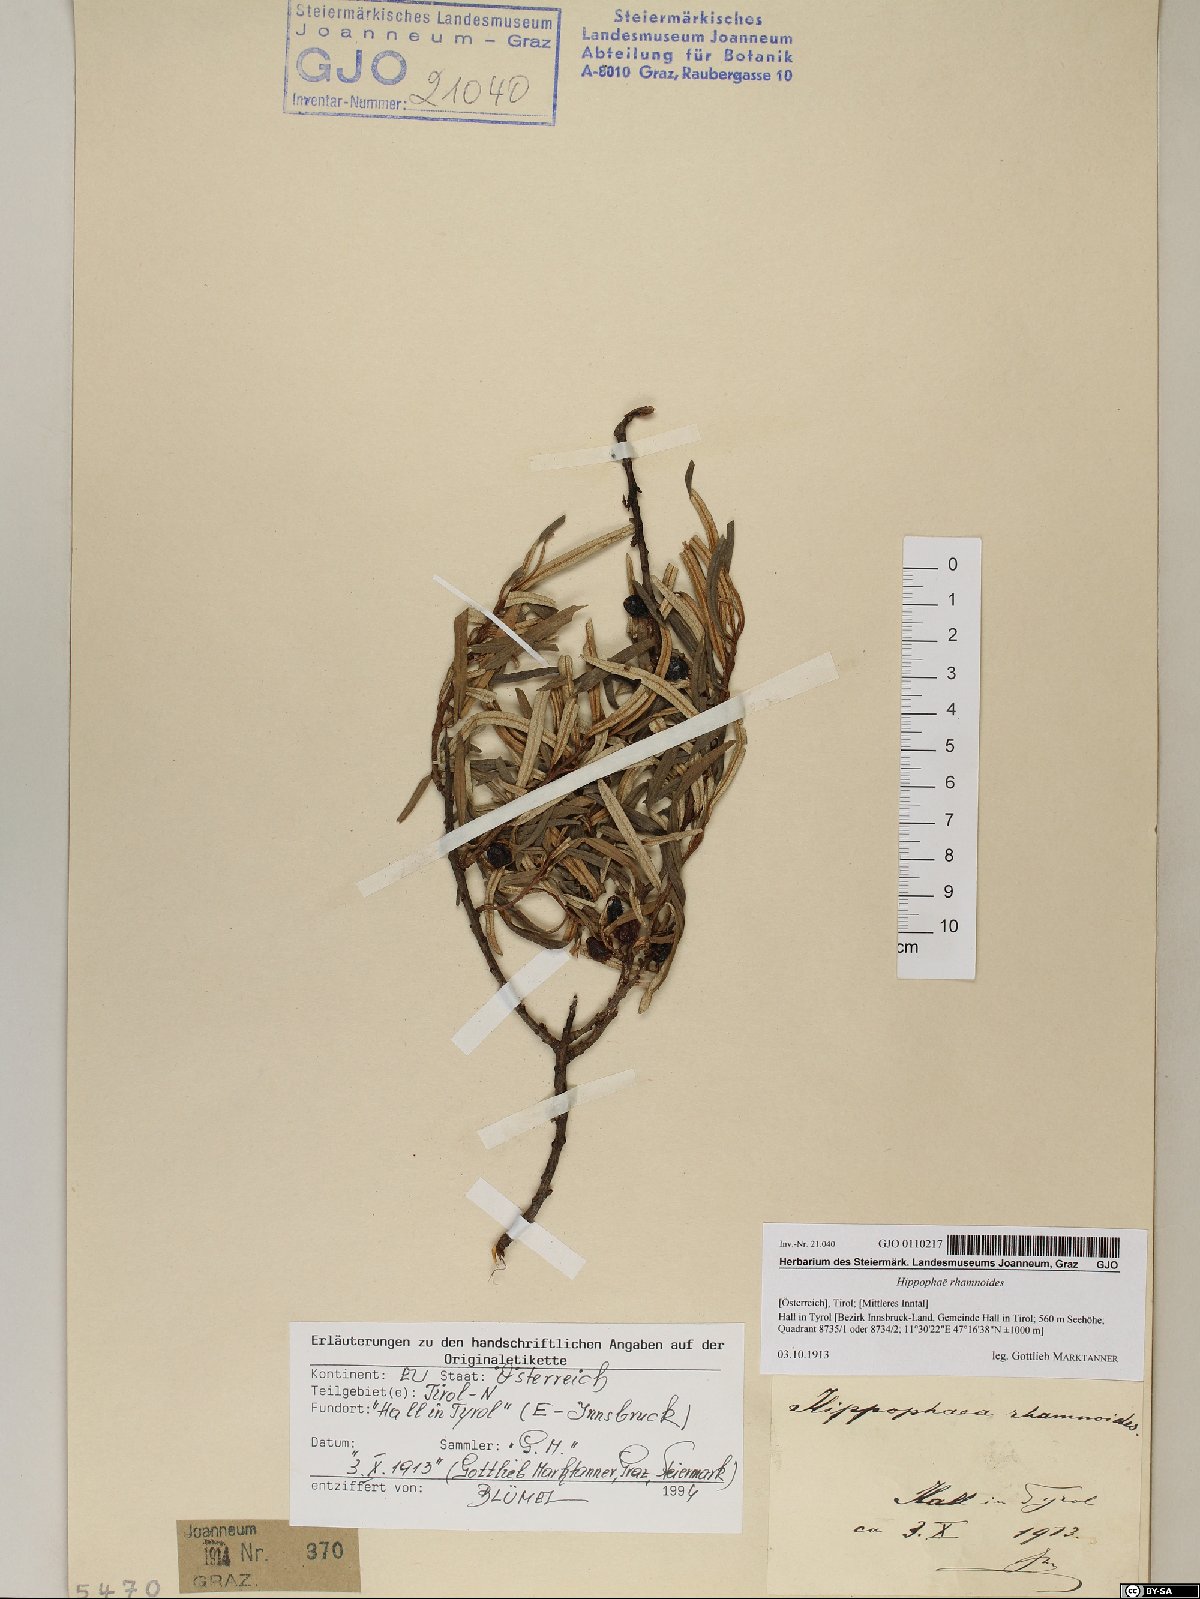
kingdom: Plantae
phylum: Tracheophyta
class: Magnoliopsida
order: Rosales
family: Elaeagnaceae
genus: Hippophae
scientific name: Hippophae rhamnoides
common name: Sea-buckthorn
